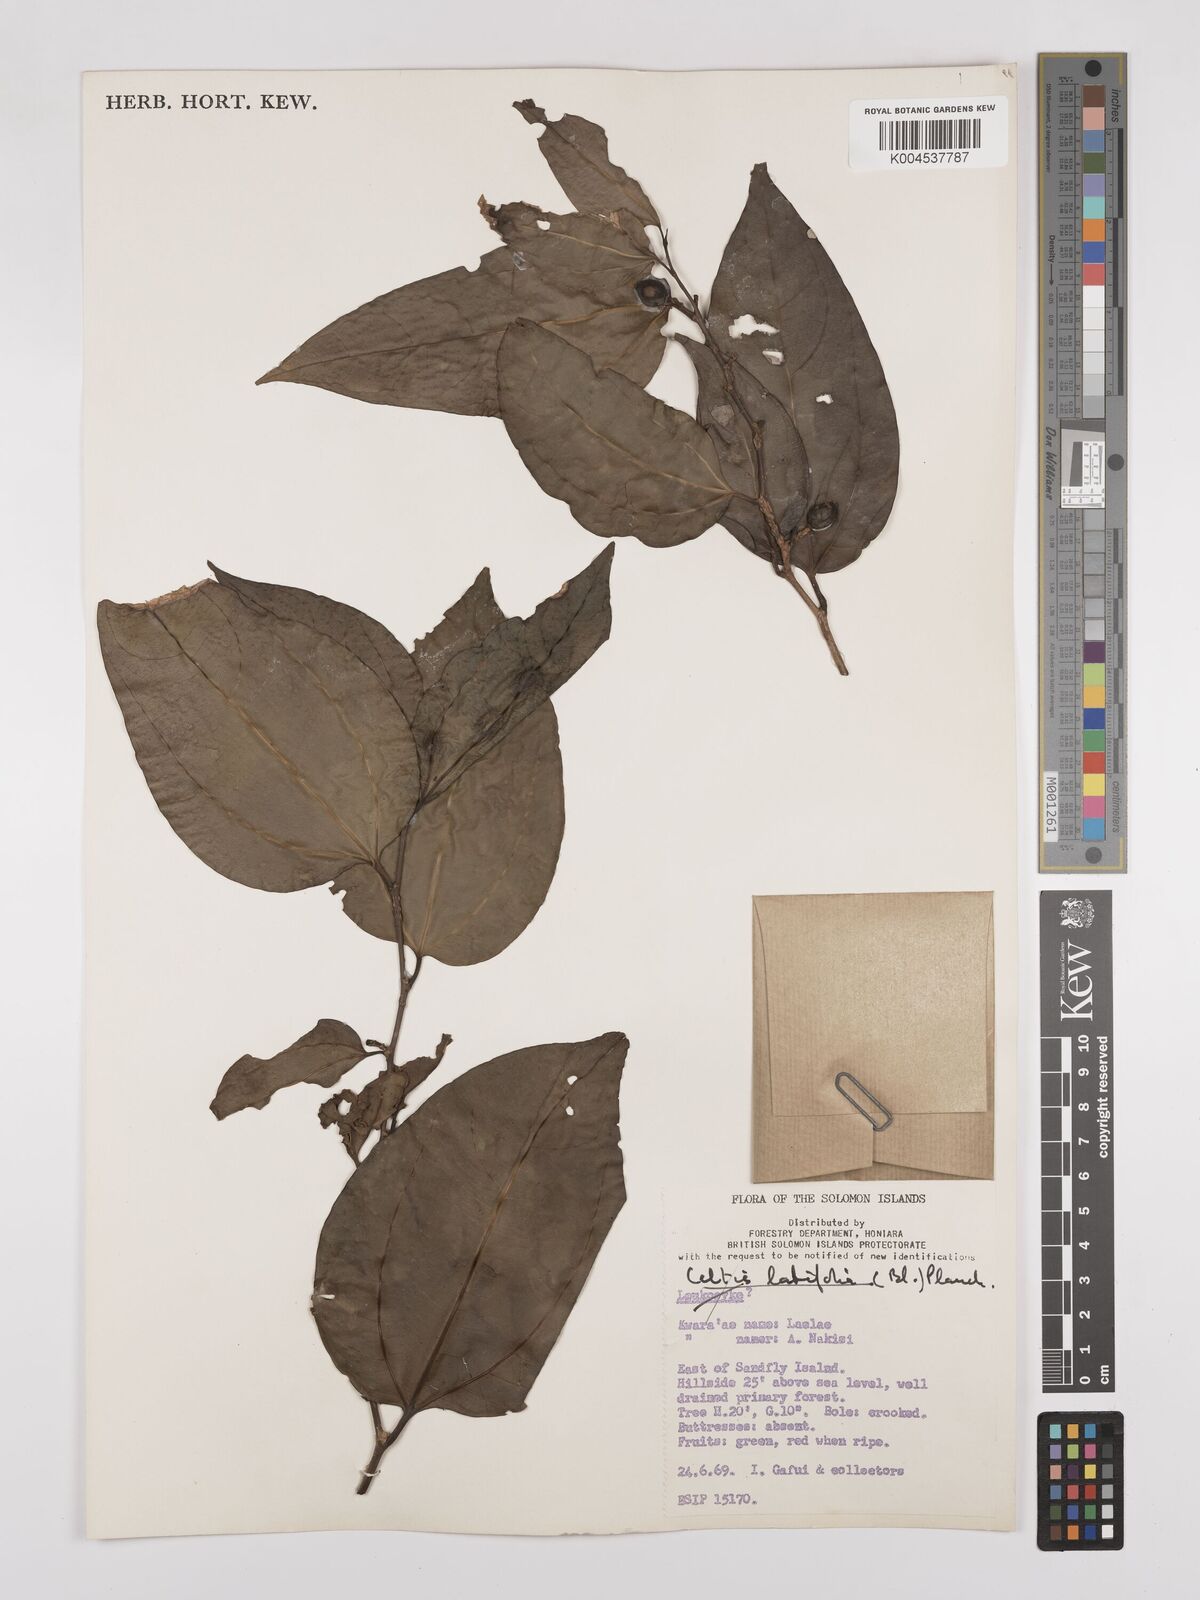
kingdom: Plantae
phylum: Tracheophyta
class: Magnoliopsida
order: Rosales
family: Cannabaceae
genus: Celtis
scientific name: Celtis latifolia
